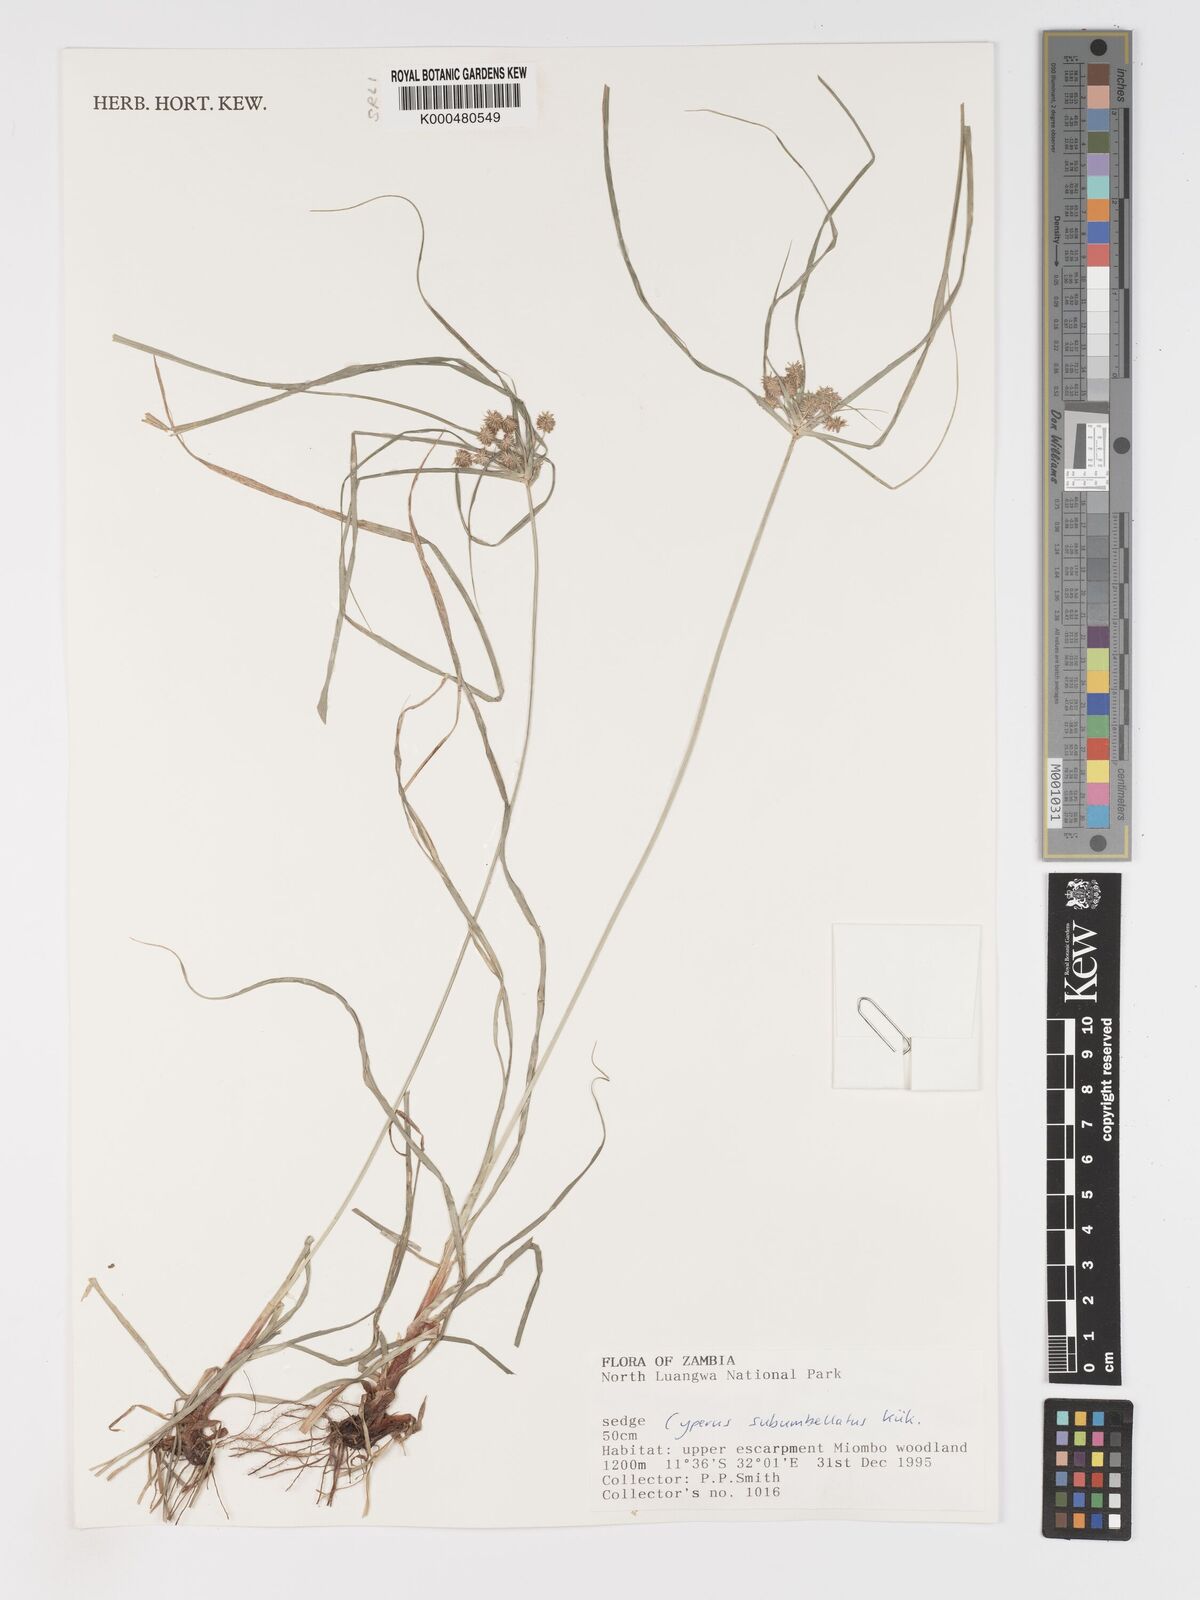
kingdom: Plantae
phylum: Tracheophyta
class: Liliopsida
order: Poales
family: Cyperaceae
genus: Cyperus
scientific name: Cyperus cyperoides
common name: Pacific island flat sedge
